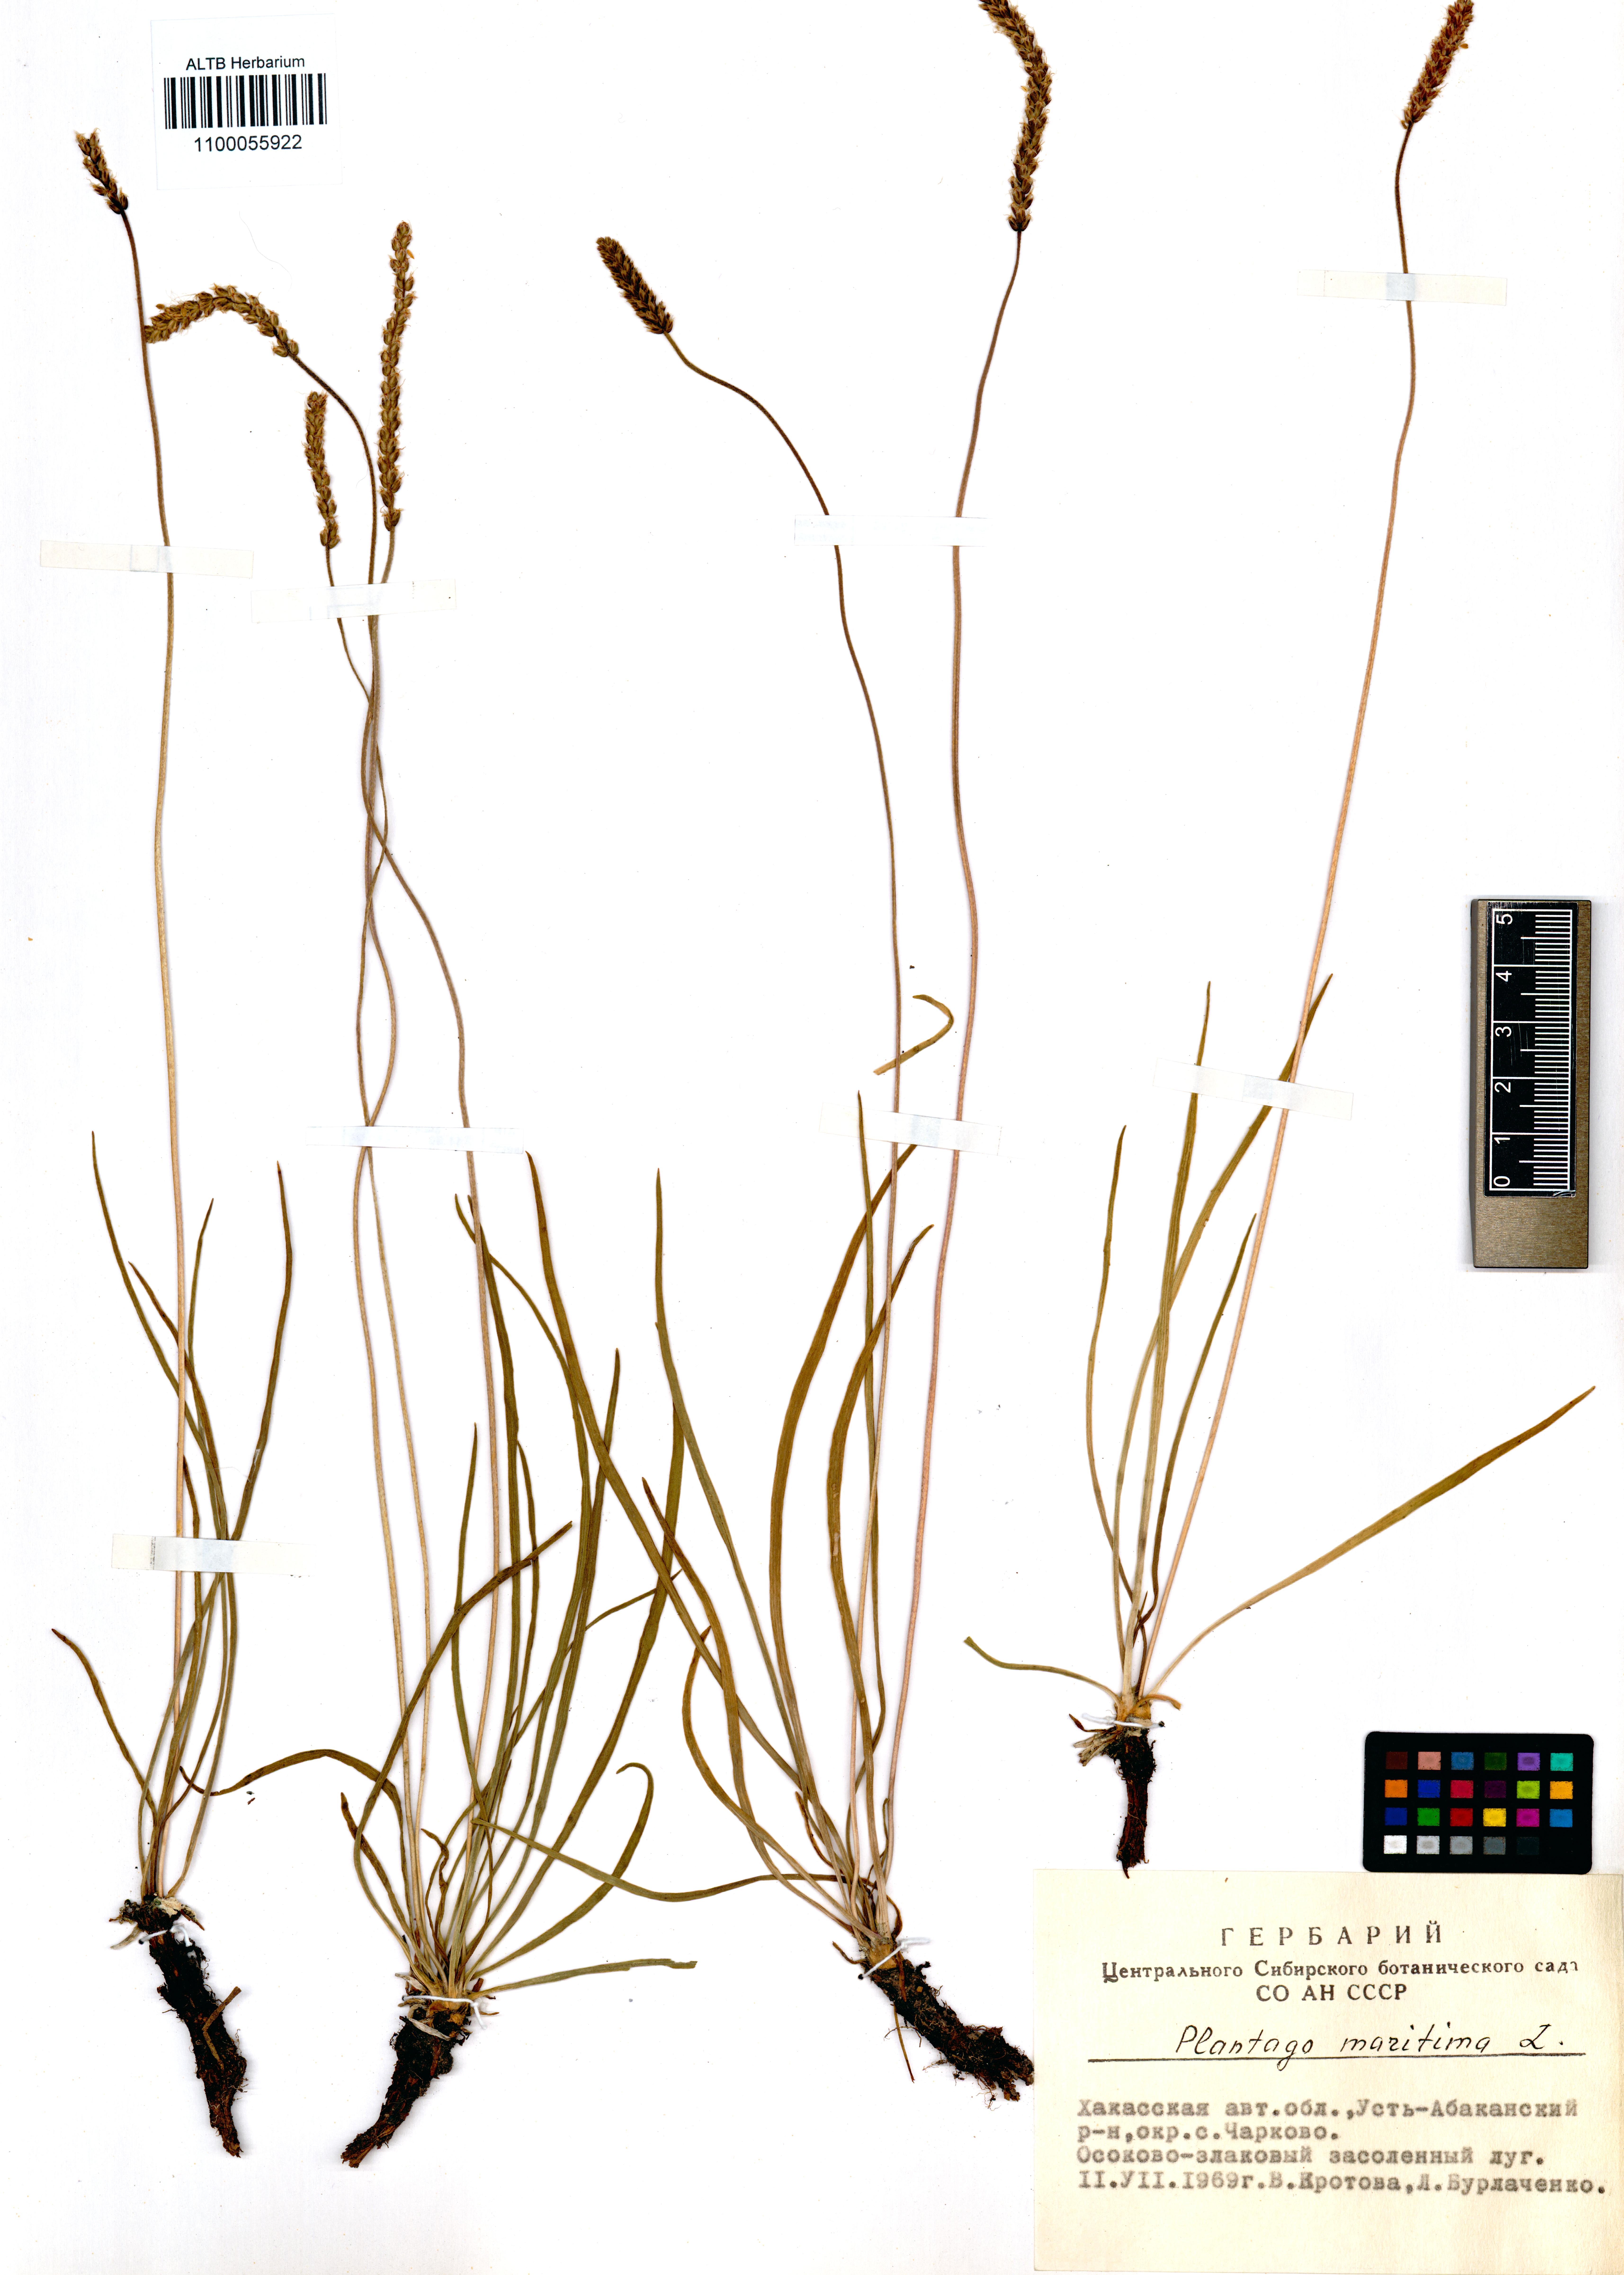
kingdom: Plantae
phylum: Tracheophyta
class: Magnoliopsida
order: Lamiales
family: Plantaginaceae
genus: Plantago
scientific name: Plantago maritima
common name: Sea plantain
